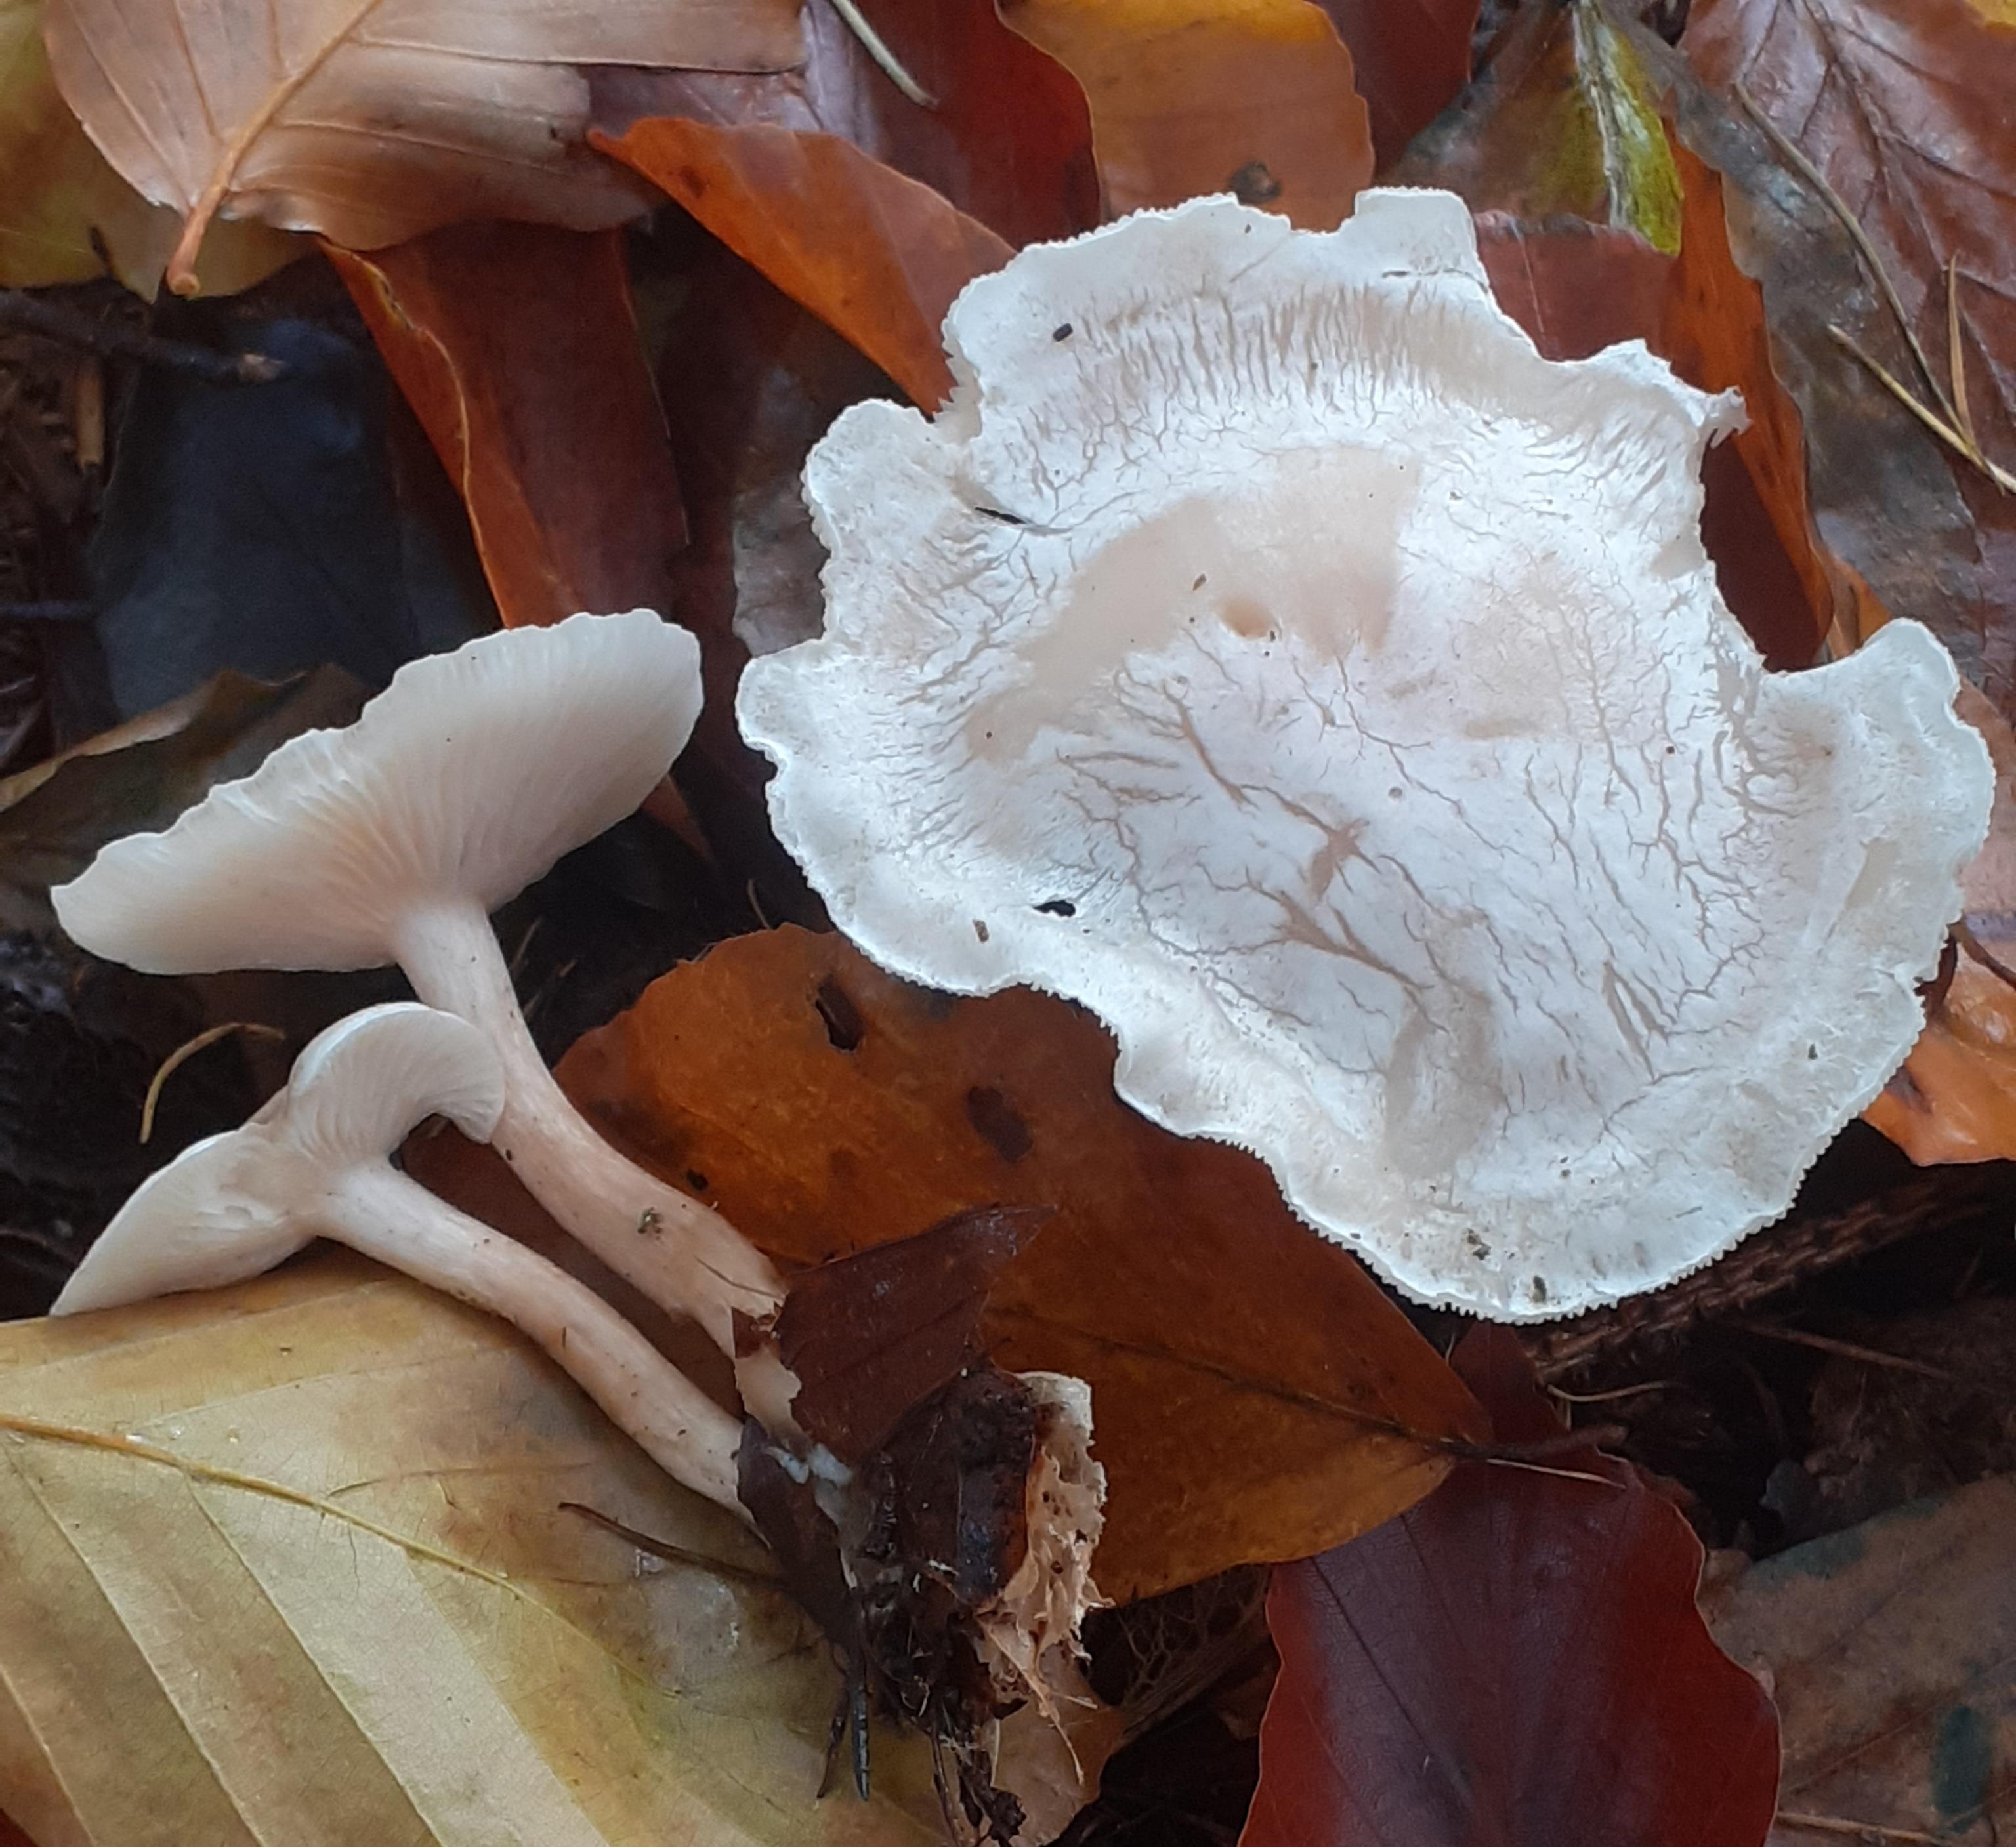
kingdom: Fungi
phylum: Basidiomycota
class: Agaricomycetes
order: Agaricales
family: Tricholomataceae
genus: Clitocybe
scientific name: Clitocybe phyllophila
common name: løv-tragthat
